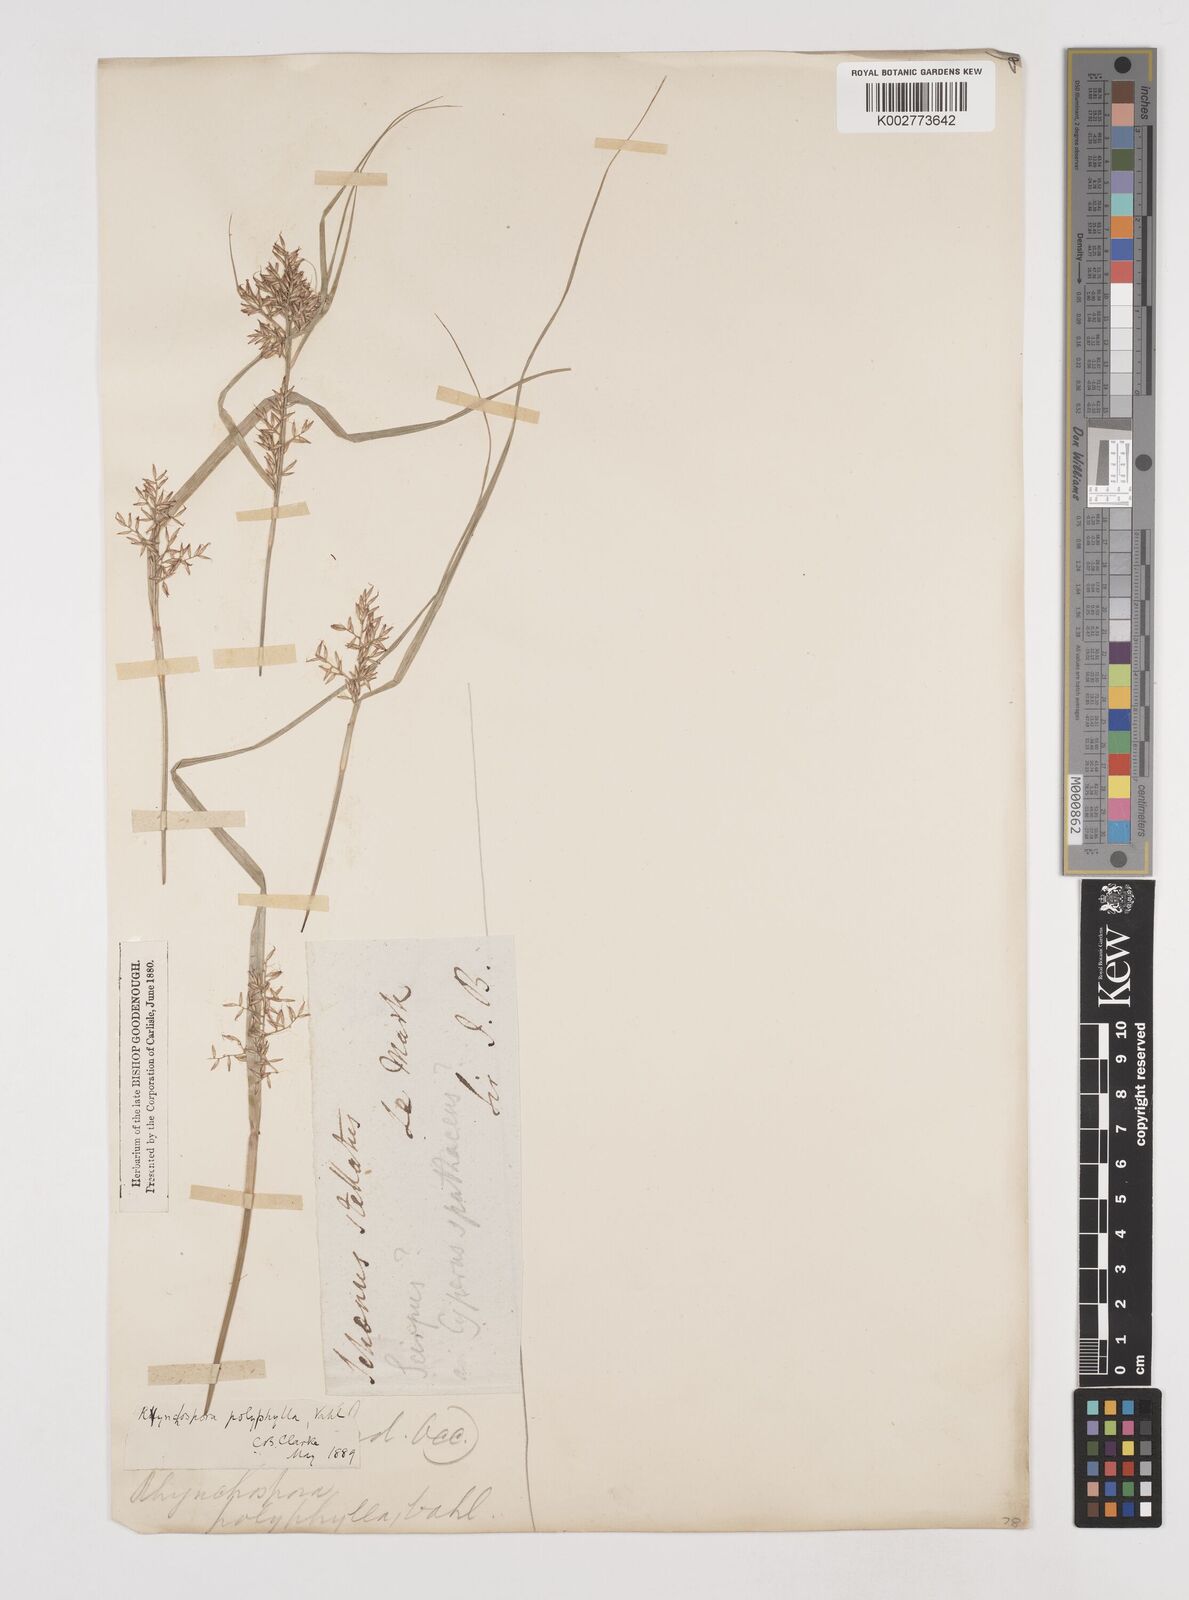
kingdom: Plantae
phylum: Tracheophyta
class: Liliopsida
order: Poales
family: Cyperaceae
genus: Rhynchospora
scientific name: Rhynchospora polyphylla
